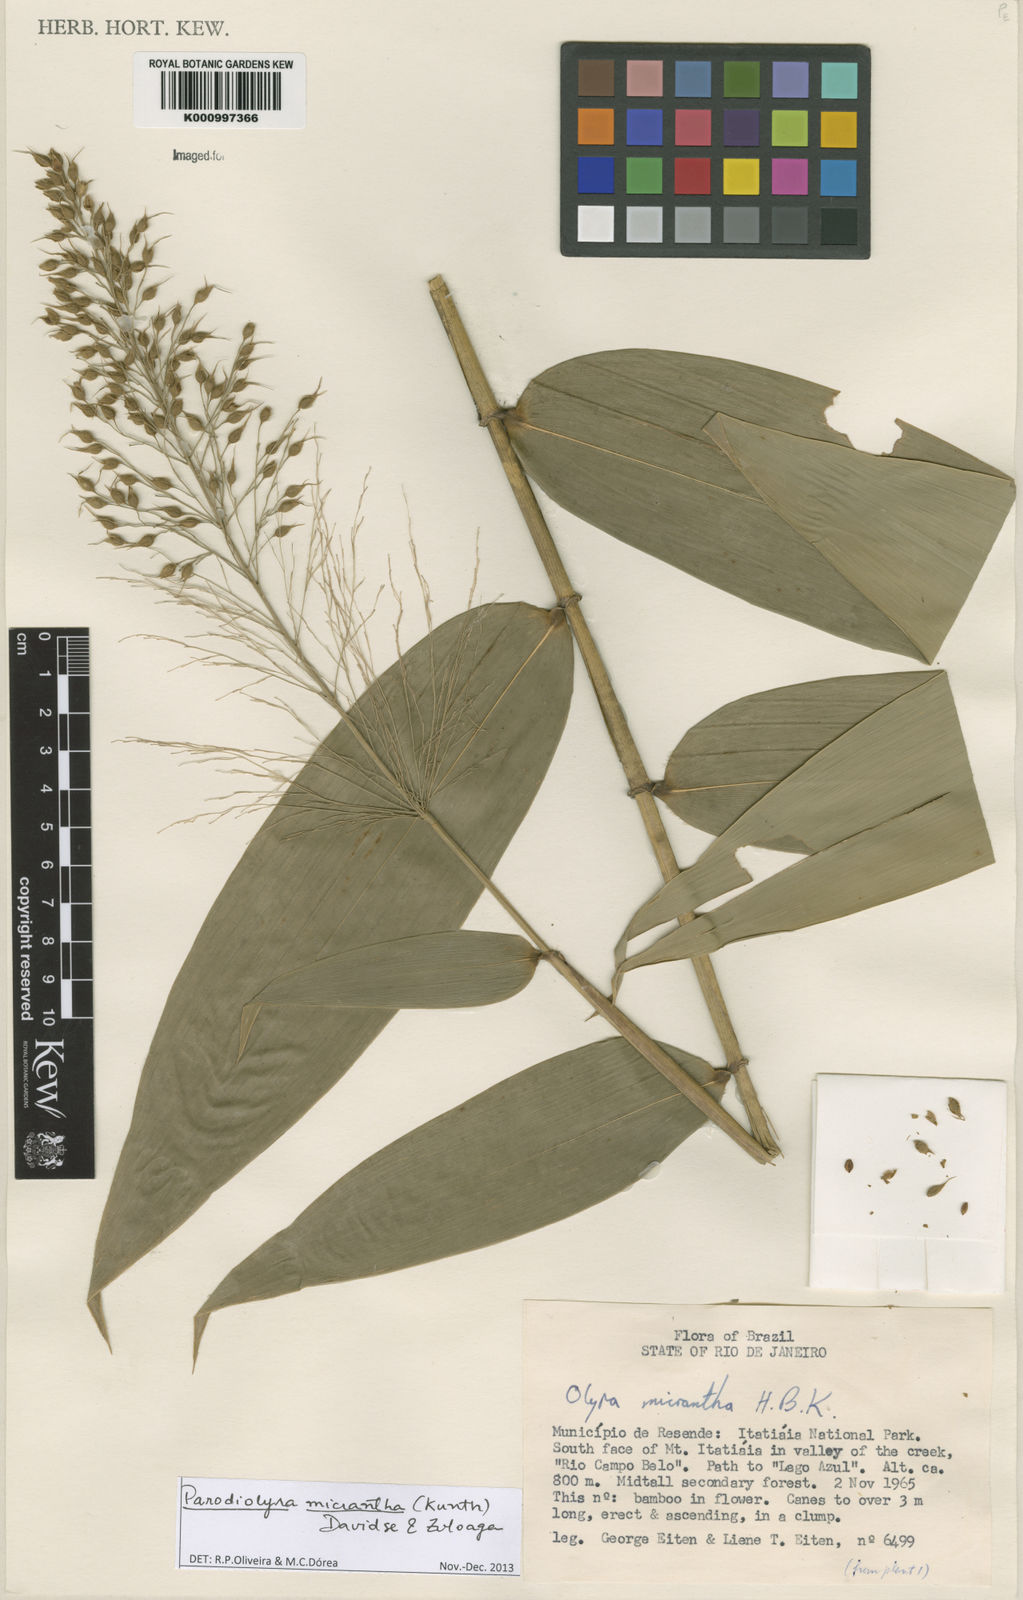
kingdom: Plantae
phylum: Tracheophyta
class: Liliopsida
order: Poales
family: Poaceae
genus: Taquara
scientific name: Taquara micrantha
